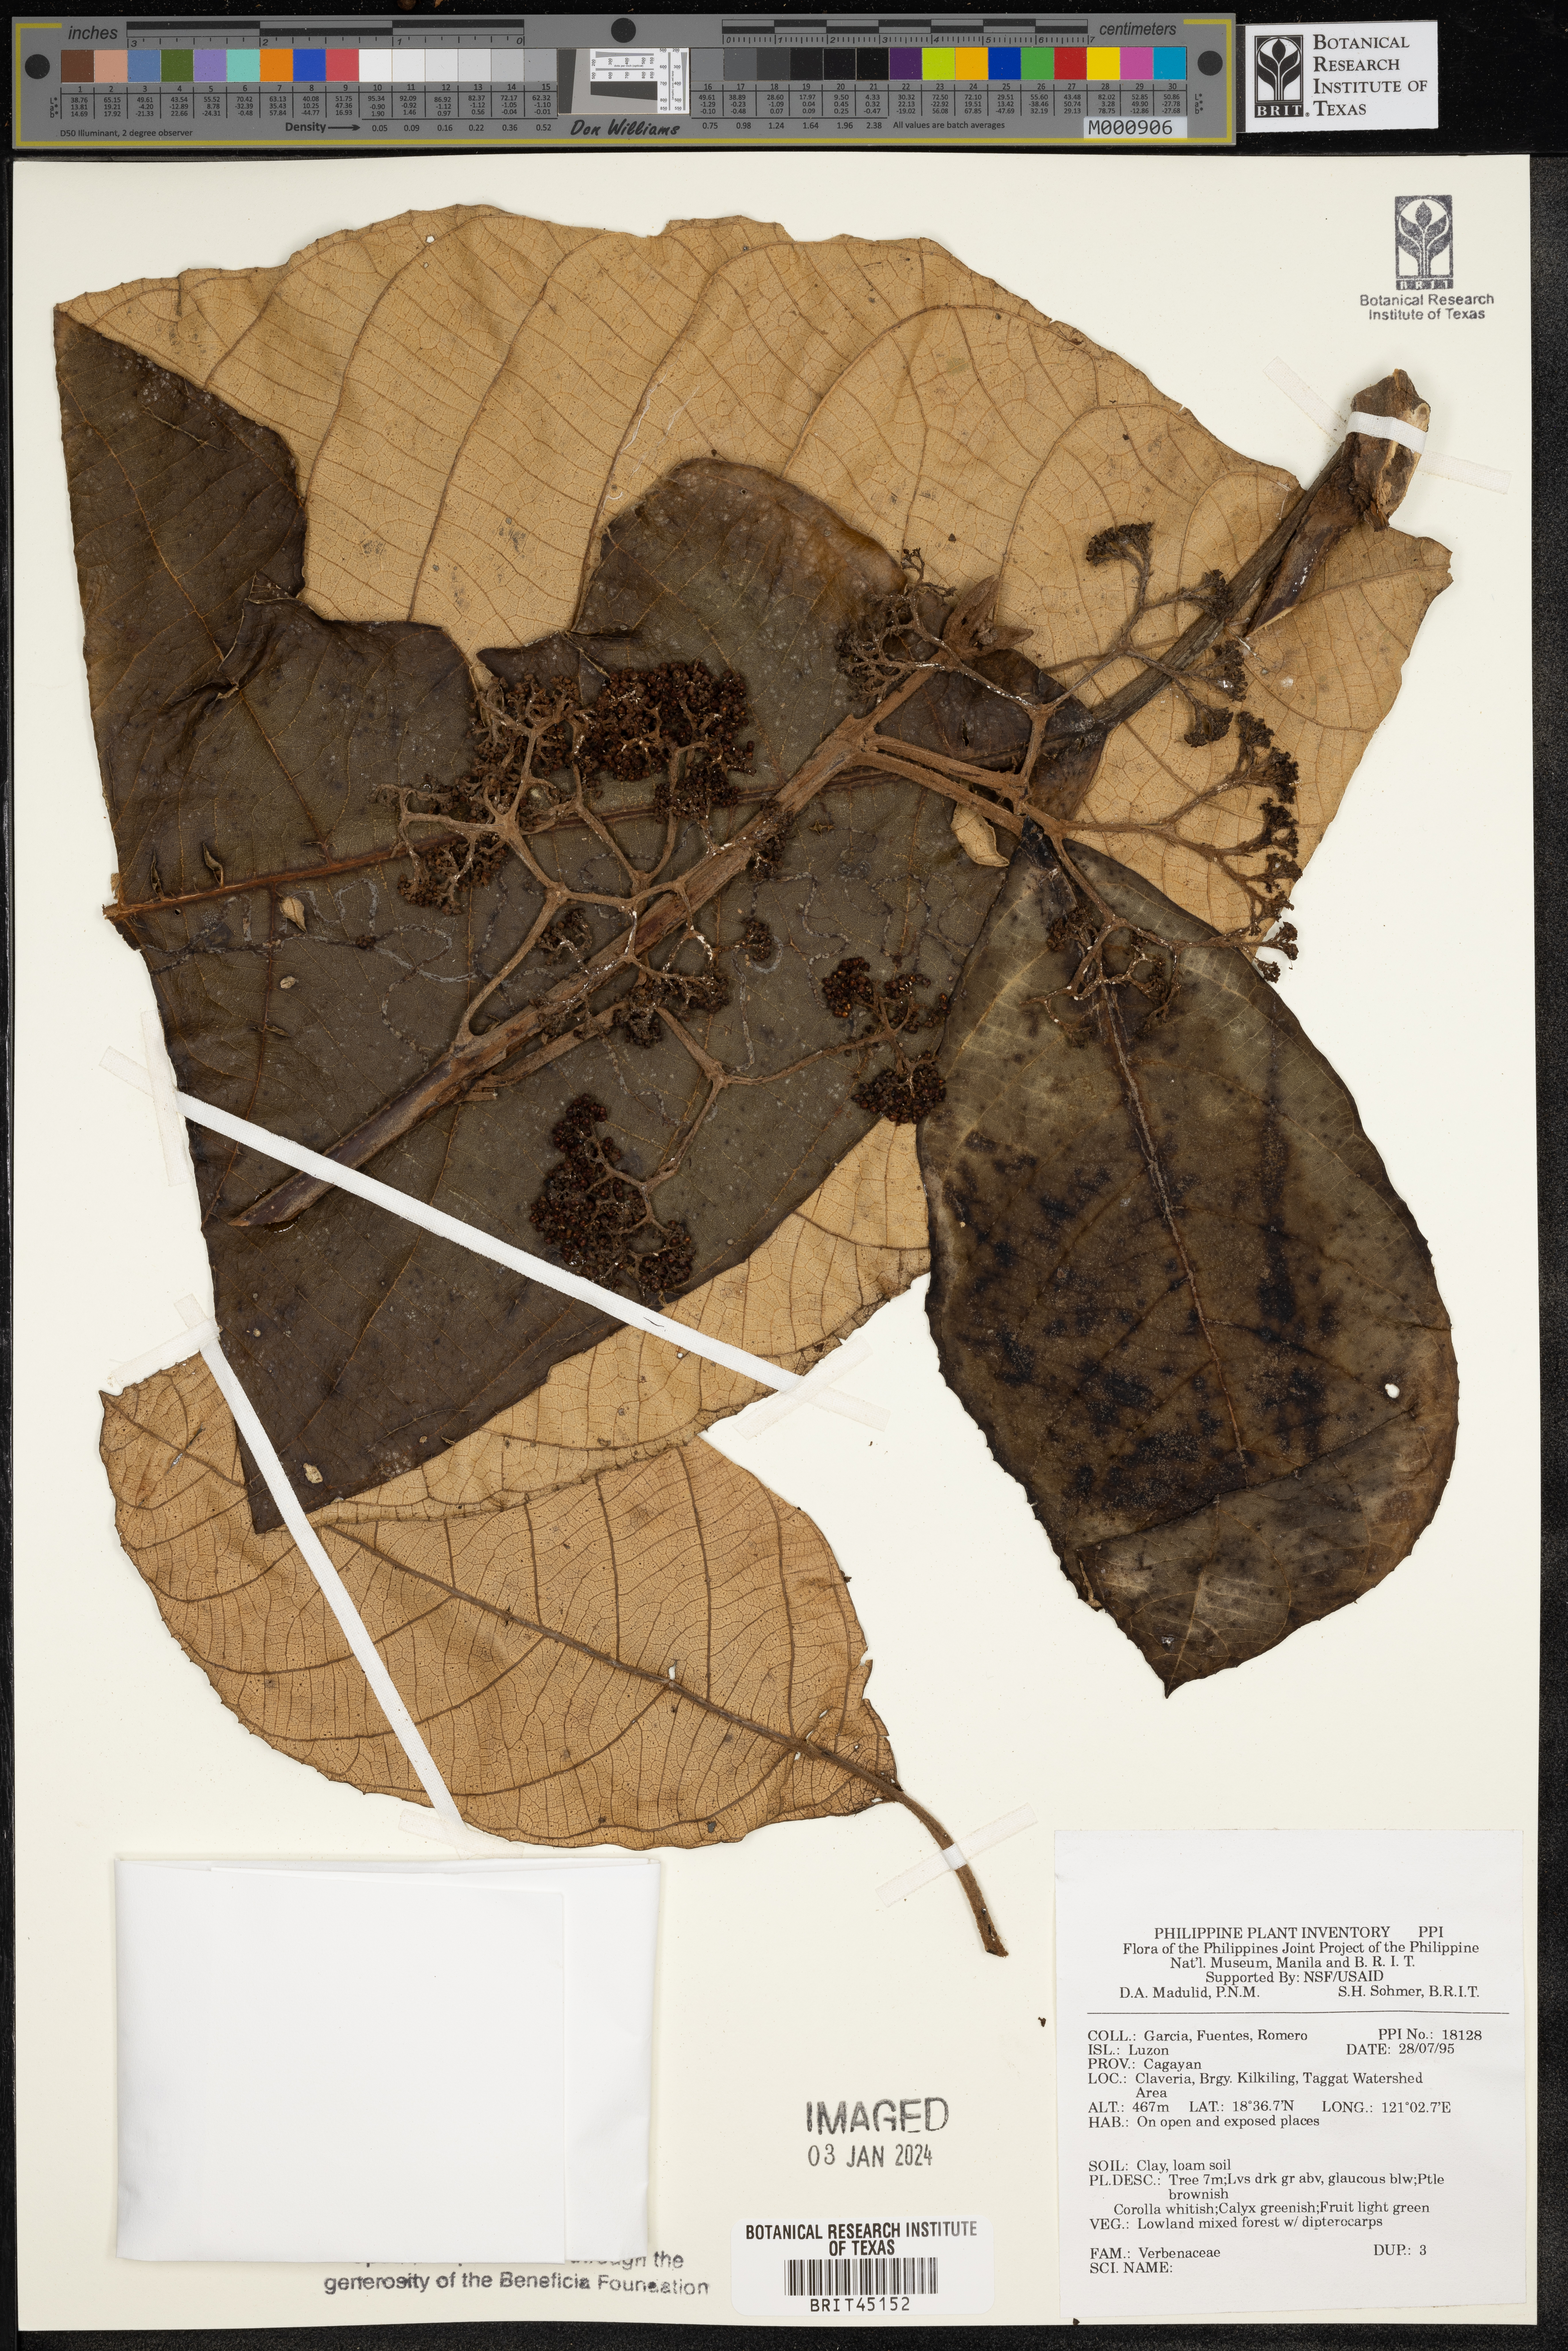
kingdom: Plantae
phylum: Tracheophyta
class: Magnoliopsida
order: Lamiales
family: Verbenaceae
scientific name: Verbenaceae
